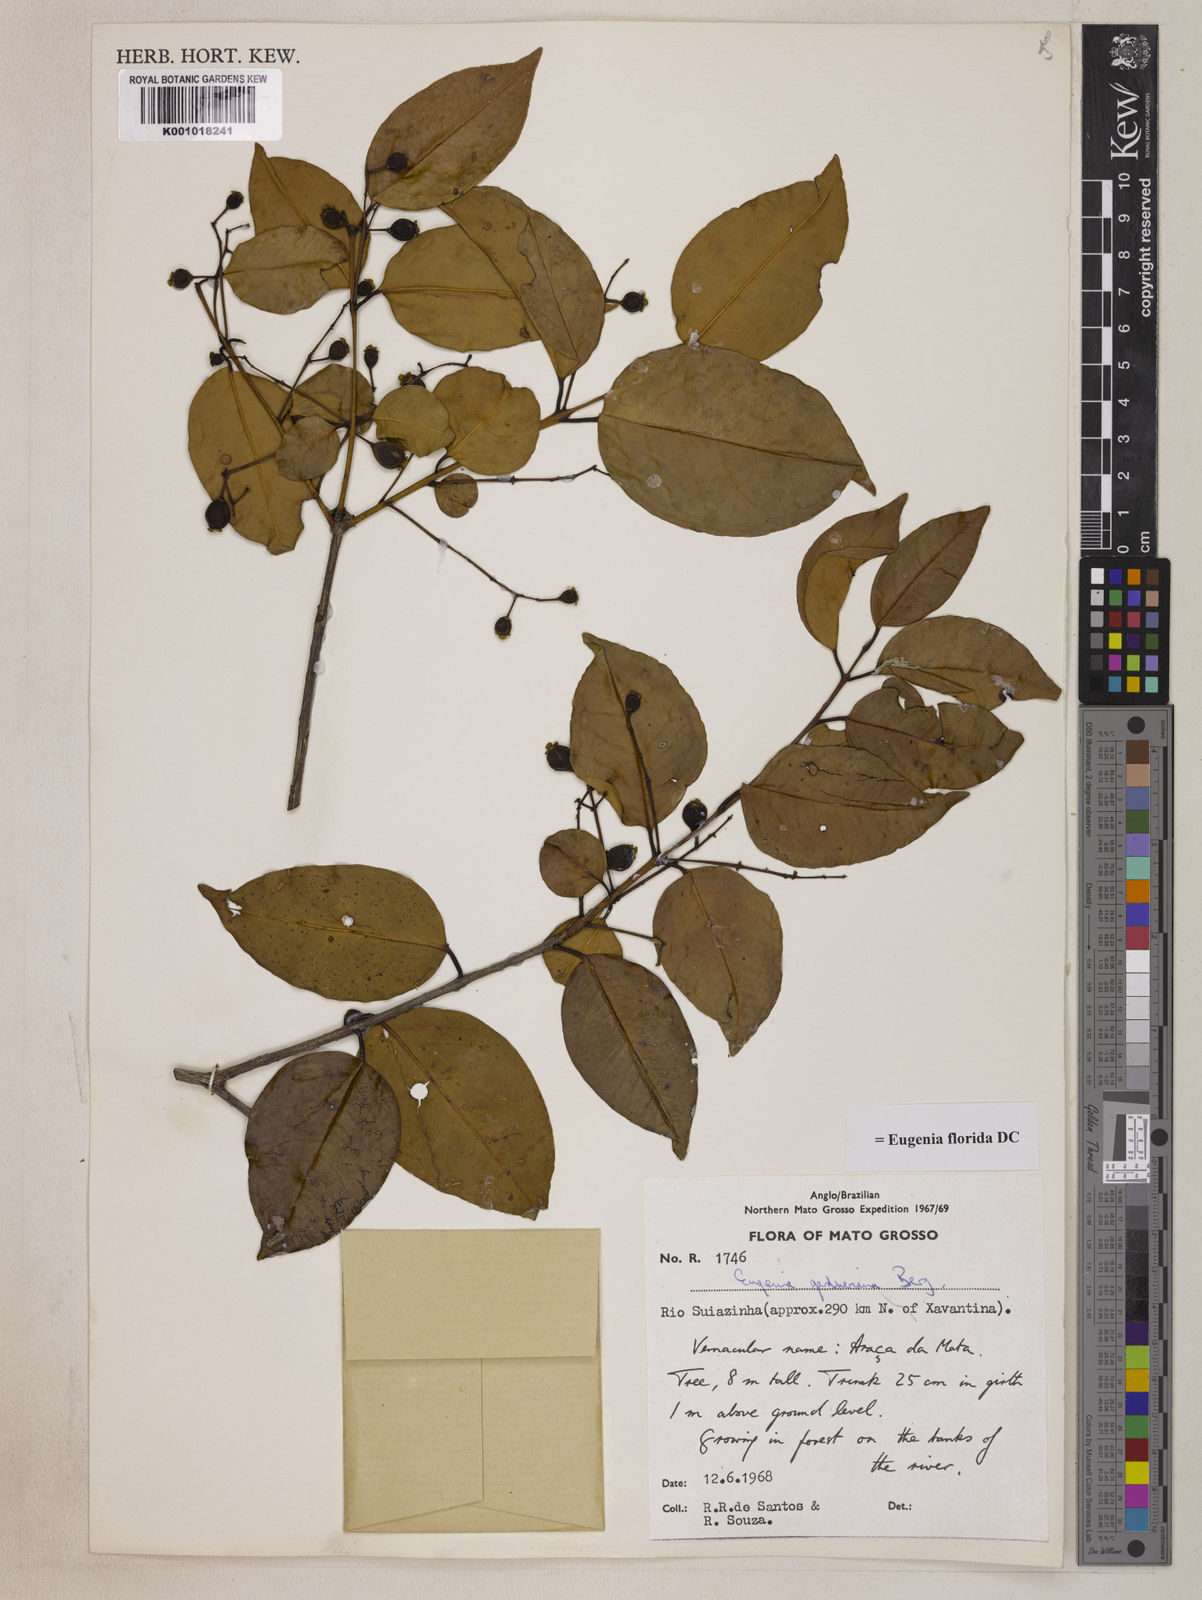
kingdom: Plantae
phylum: Tracheophyta
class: Magnoliopsida
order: Myrtales
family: Myrtaceae
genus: Eugenia
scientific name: Eugenia florida
